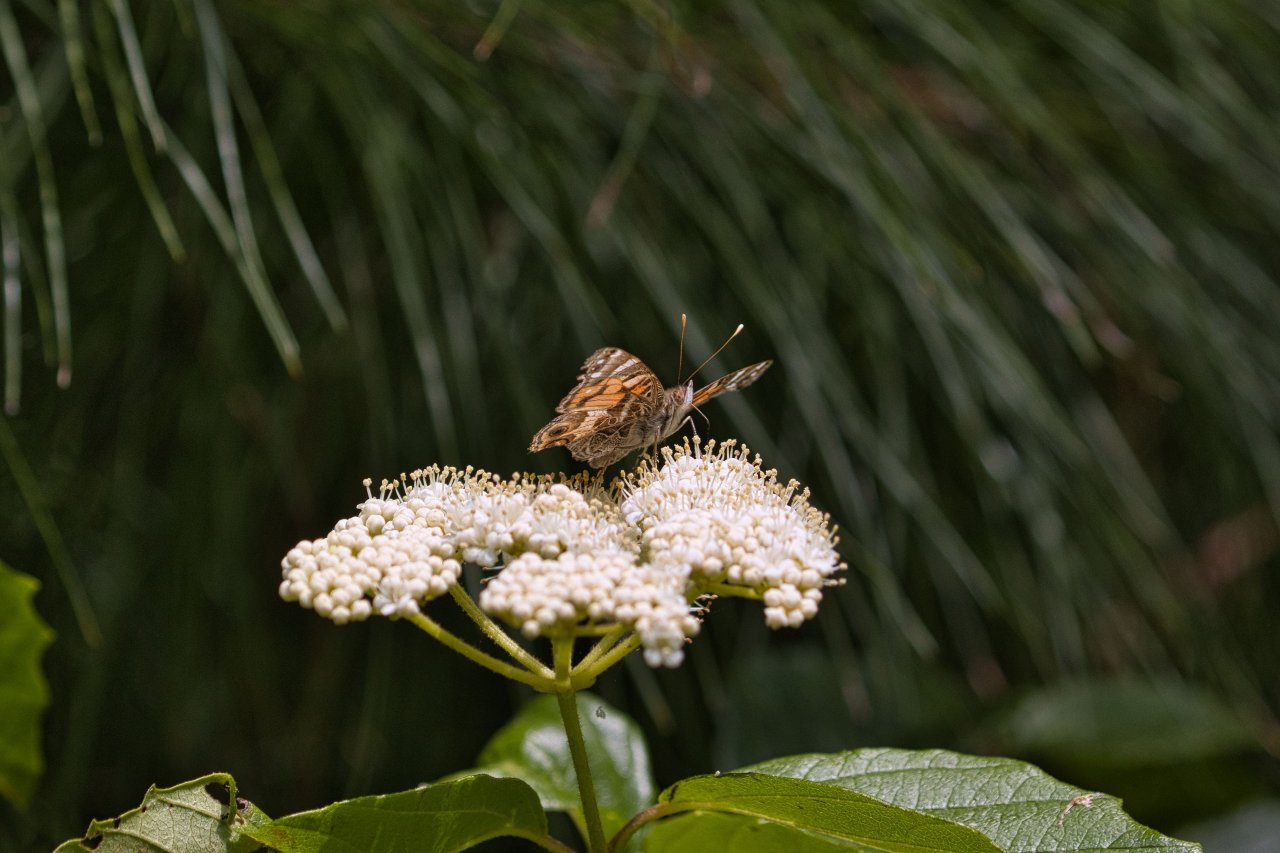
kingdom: Animalia
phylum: Arthropoda
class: Insecta
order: Lepidoptera
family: Nymphalidae
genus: Vanessa
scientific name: Vanessa virginiensis
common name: American Lady
